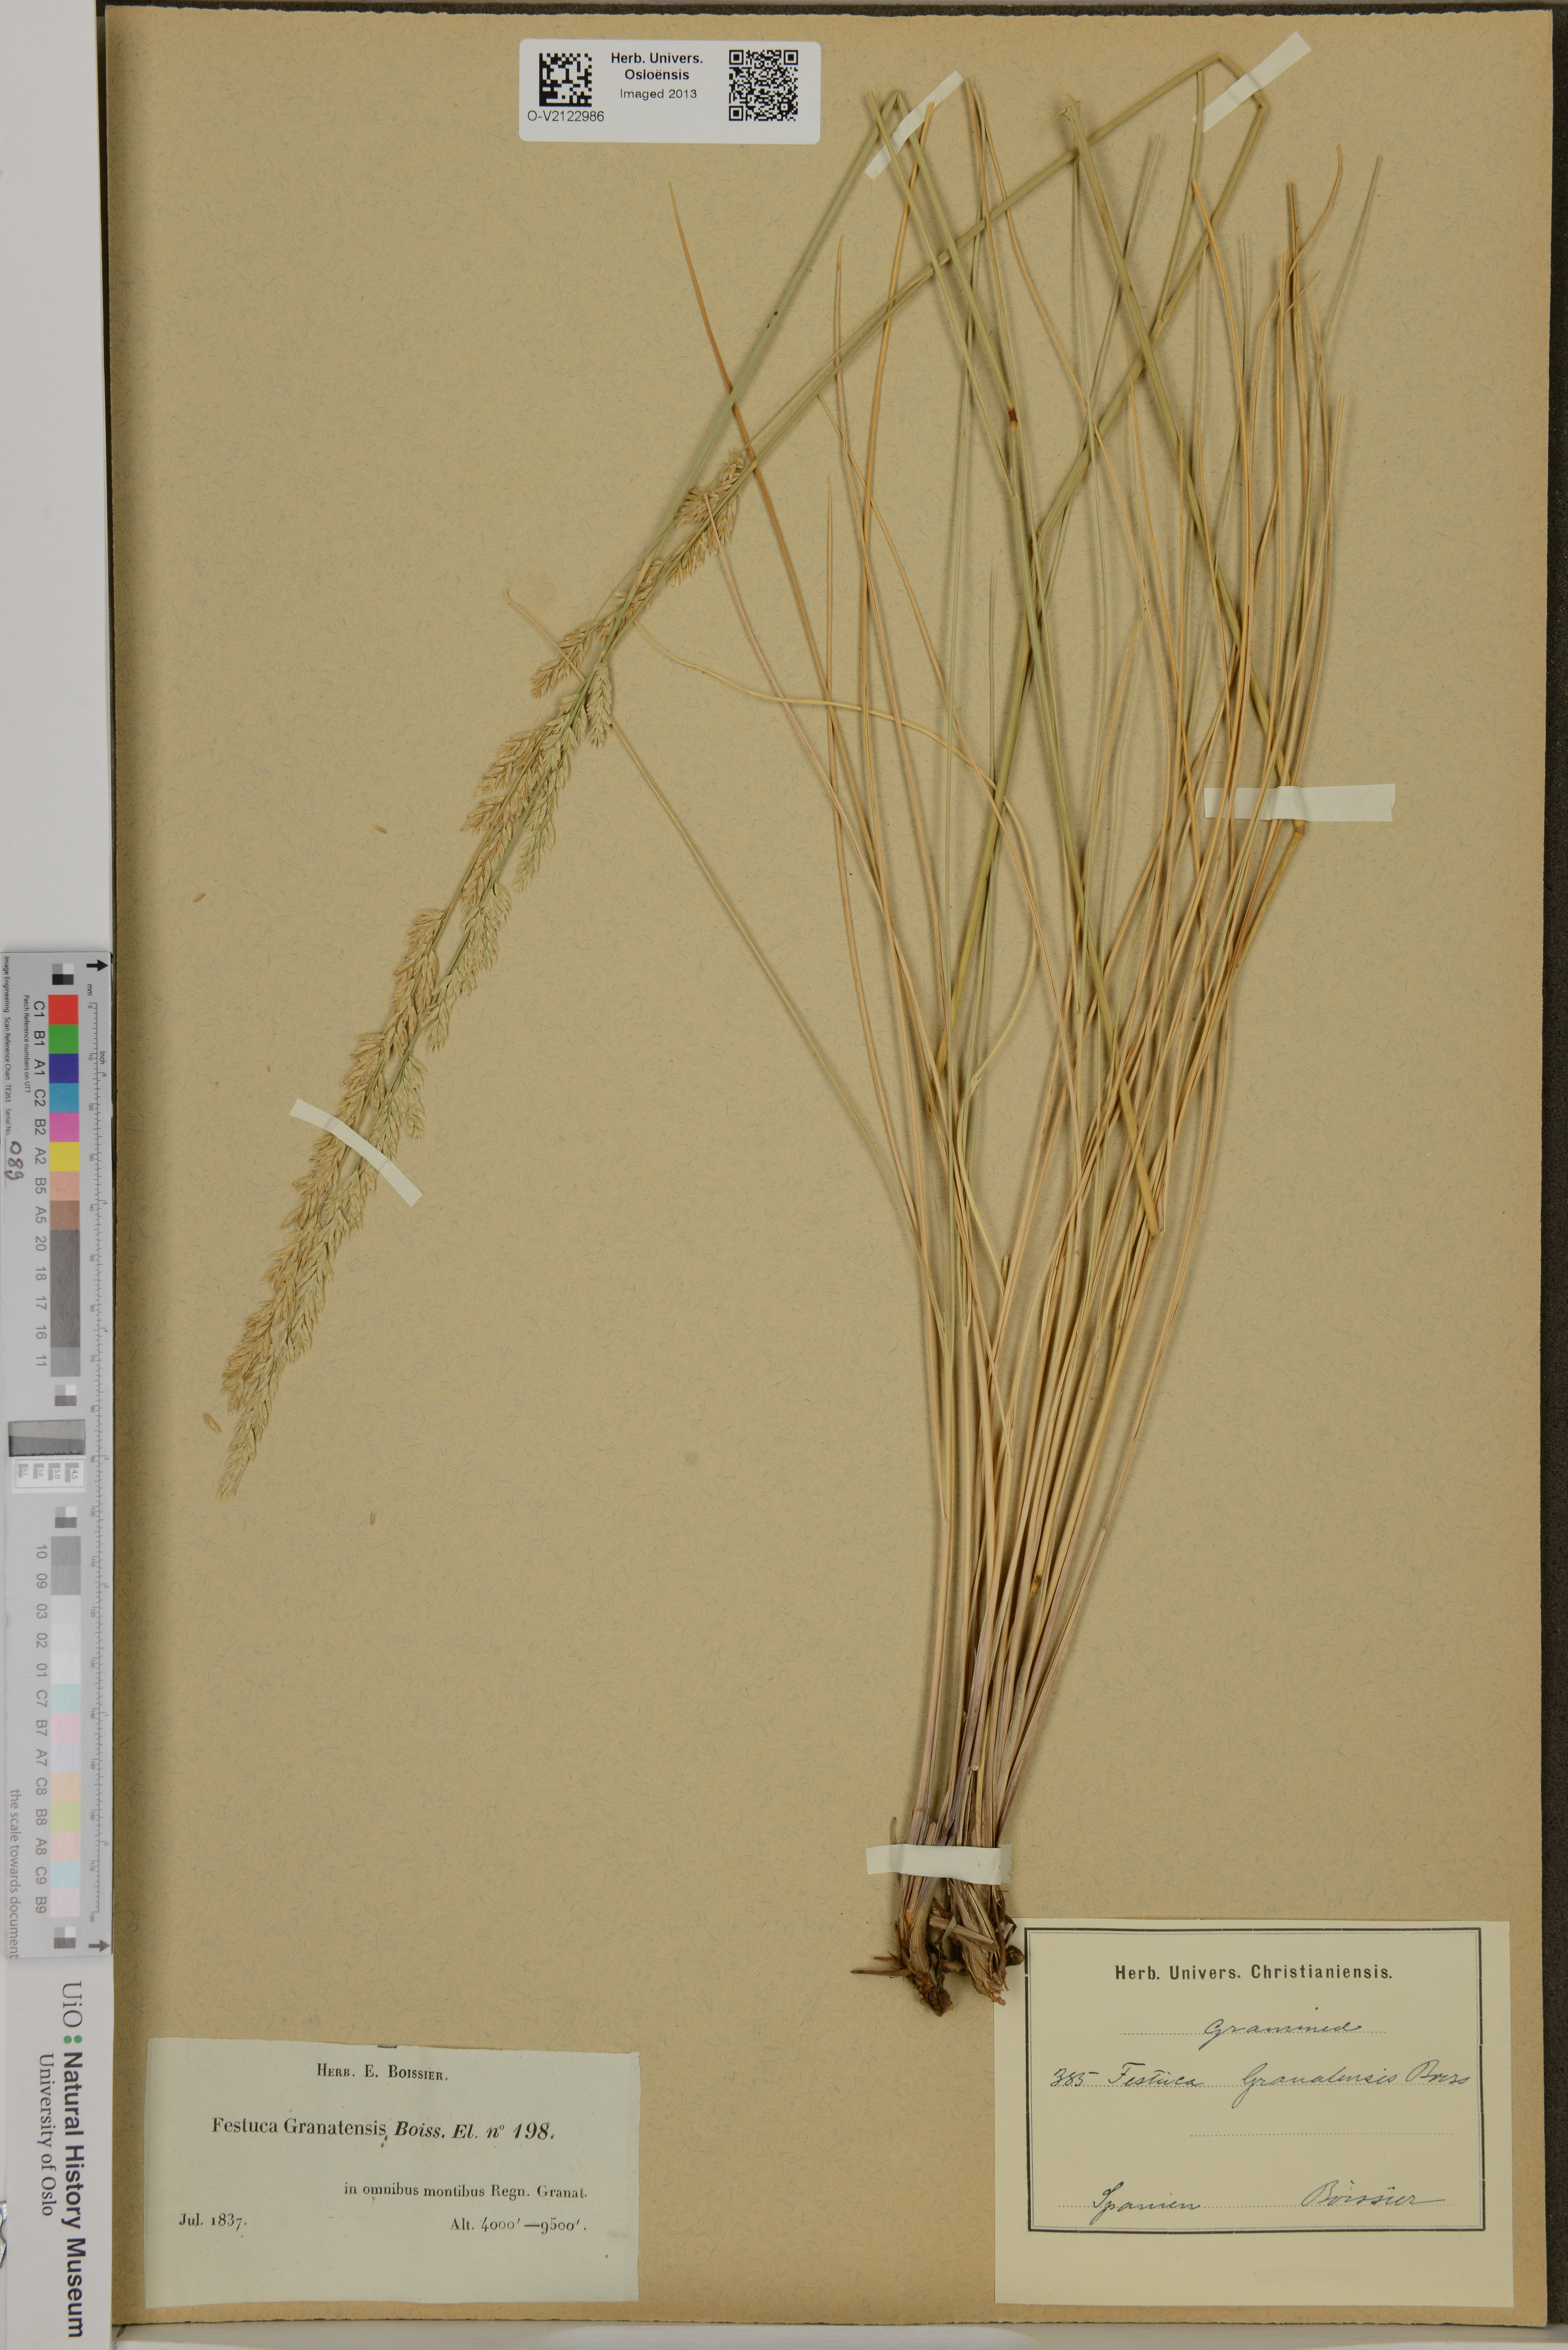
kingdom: Plantae
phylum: Tracheophyta
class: Liliopsida
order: Poales
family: Poaceae
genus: Festuca
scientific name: Festuca granatensis
